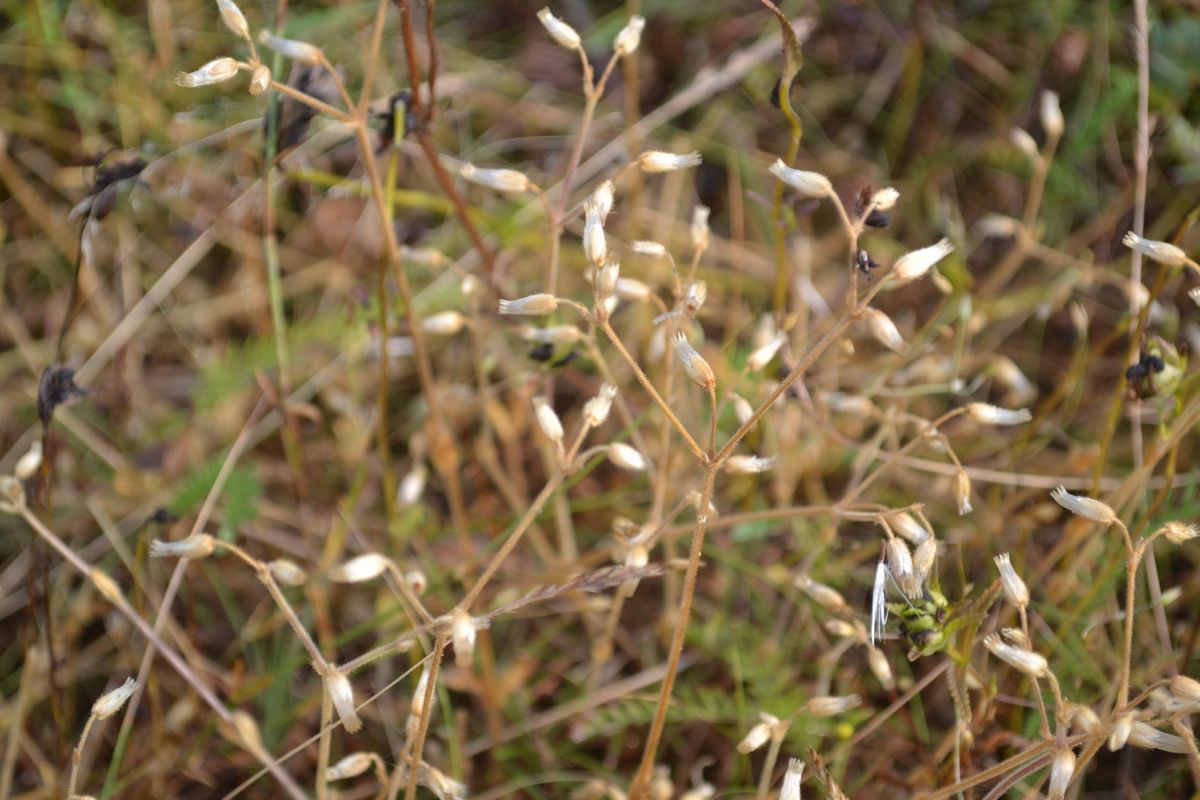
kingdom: Plantae
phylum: Tracheophyta
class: Magnoliopsida
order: Caryophyllales
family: Caryophyllaceae
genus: Cerastium
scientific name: Cerastium holosteoides
